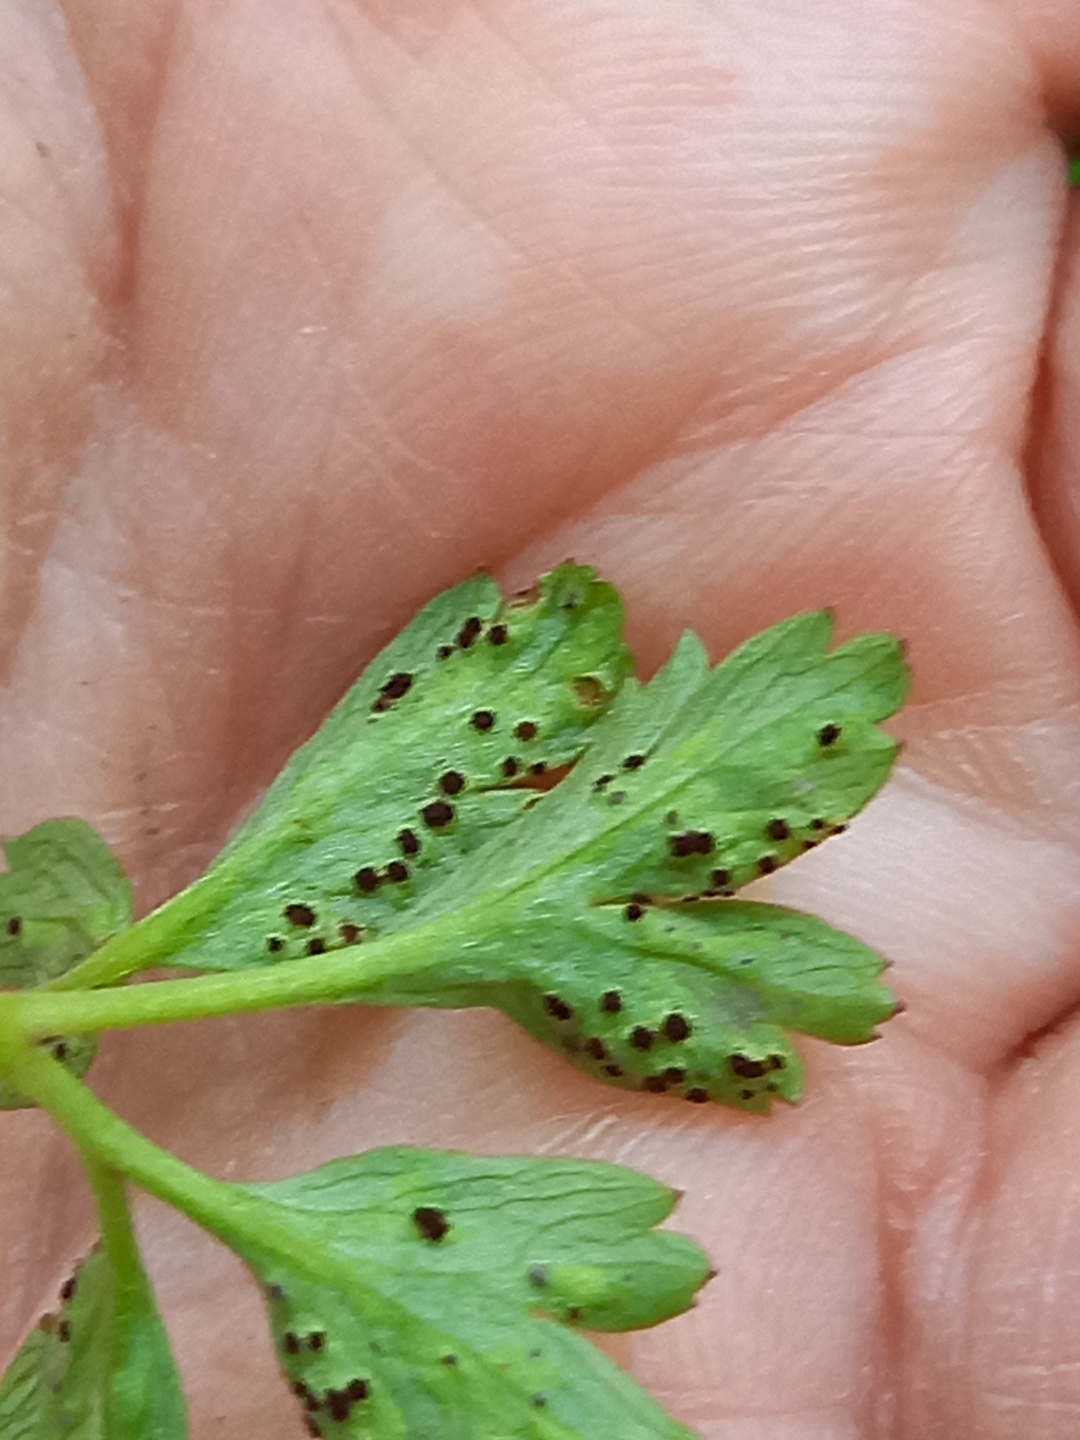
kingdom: Fungi
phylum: Basidiomycota
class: Pucciniomycetes
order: Pucciniales
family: Tranzscheliaceae
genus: Tranzschelia
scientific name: Tranzschelia anemones
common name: anemone-knæksporerust
